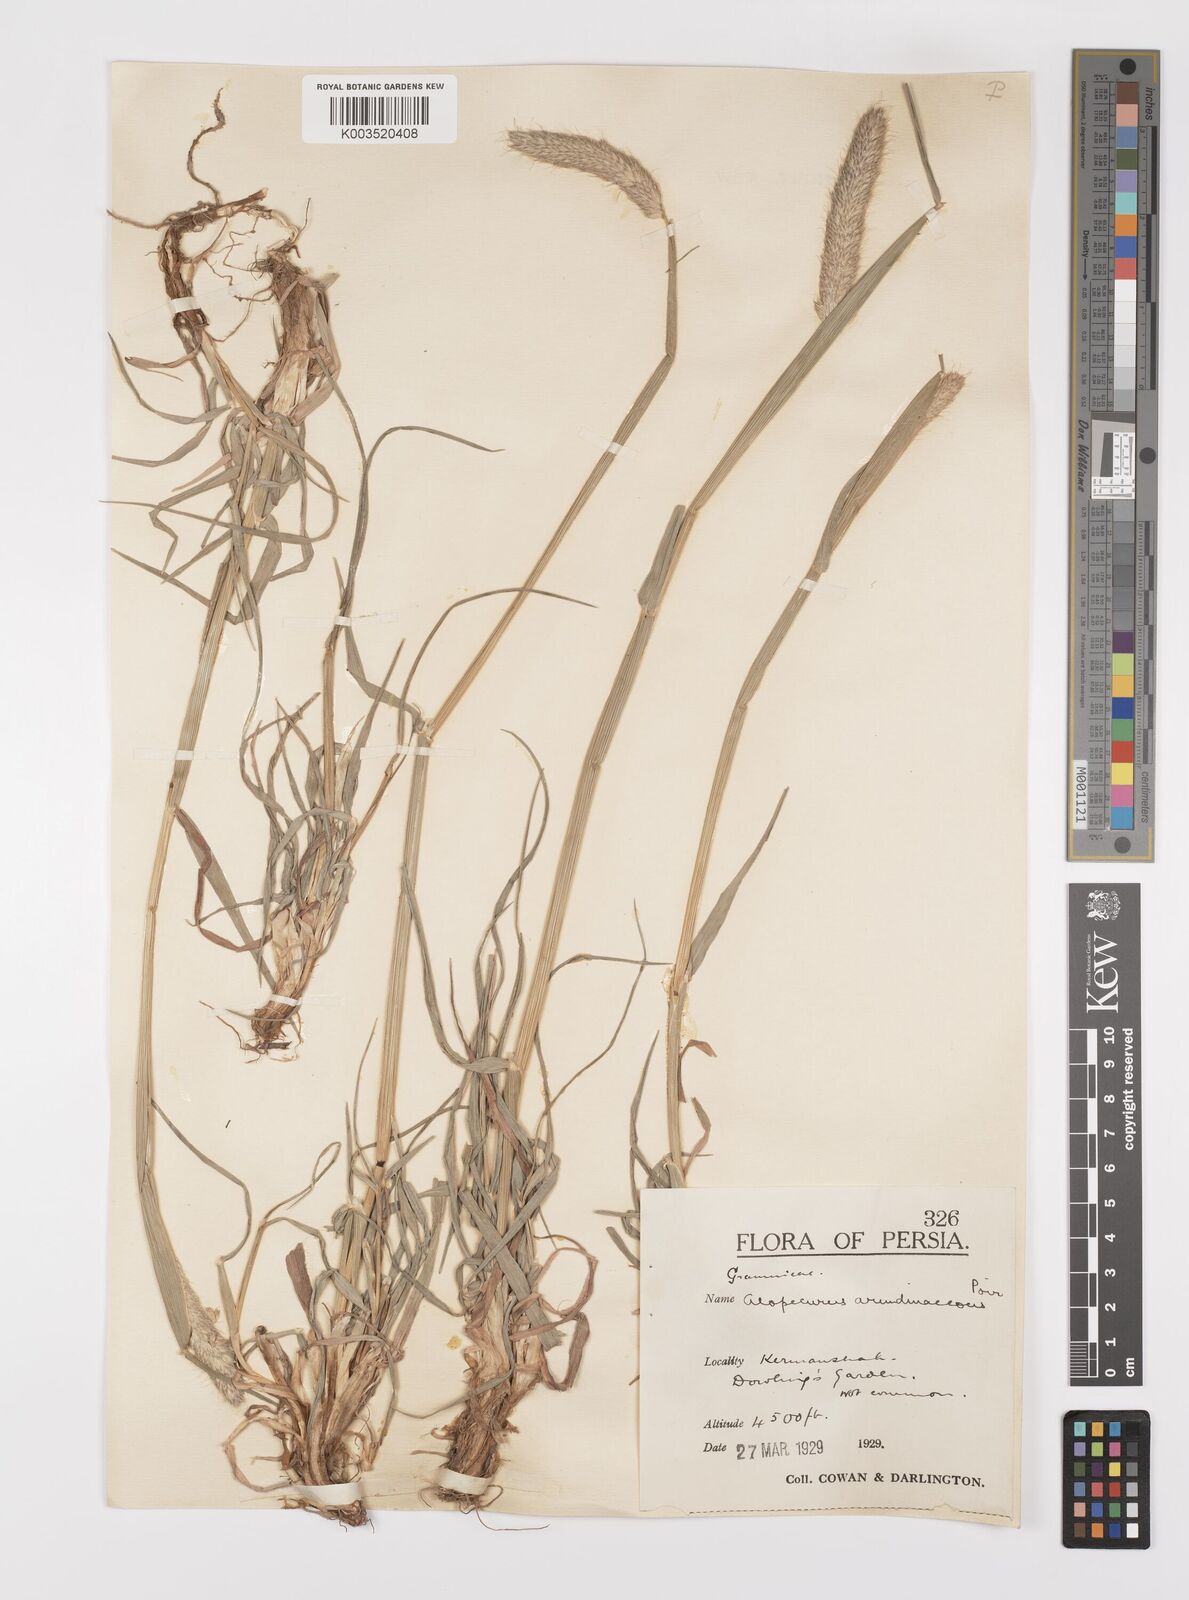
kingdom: Plantae
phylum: Tracheophyta
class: Liliopsida
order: Poales
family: Poaceae
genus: Alopecurus
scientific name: Alopecurus arundinaceus
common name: Creeping meadow foxtail
